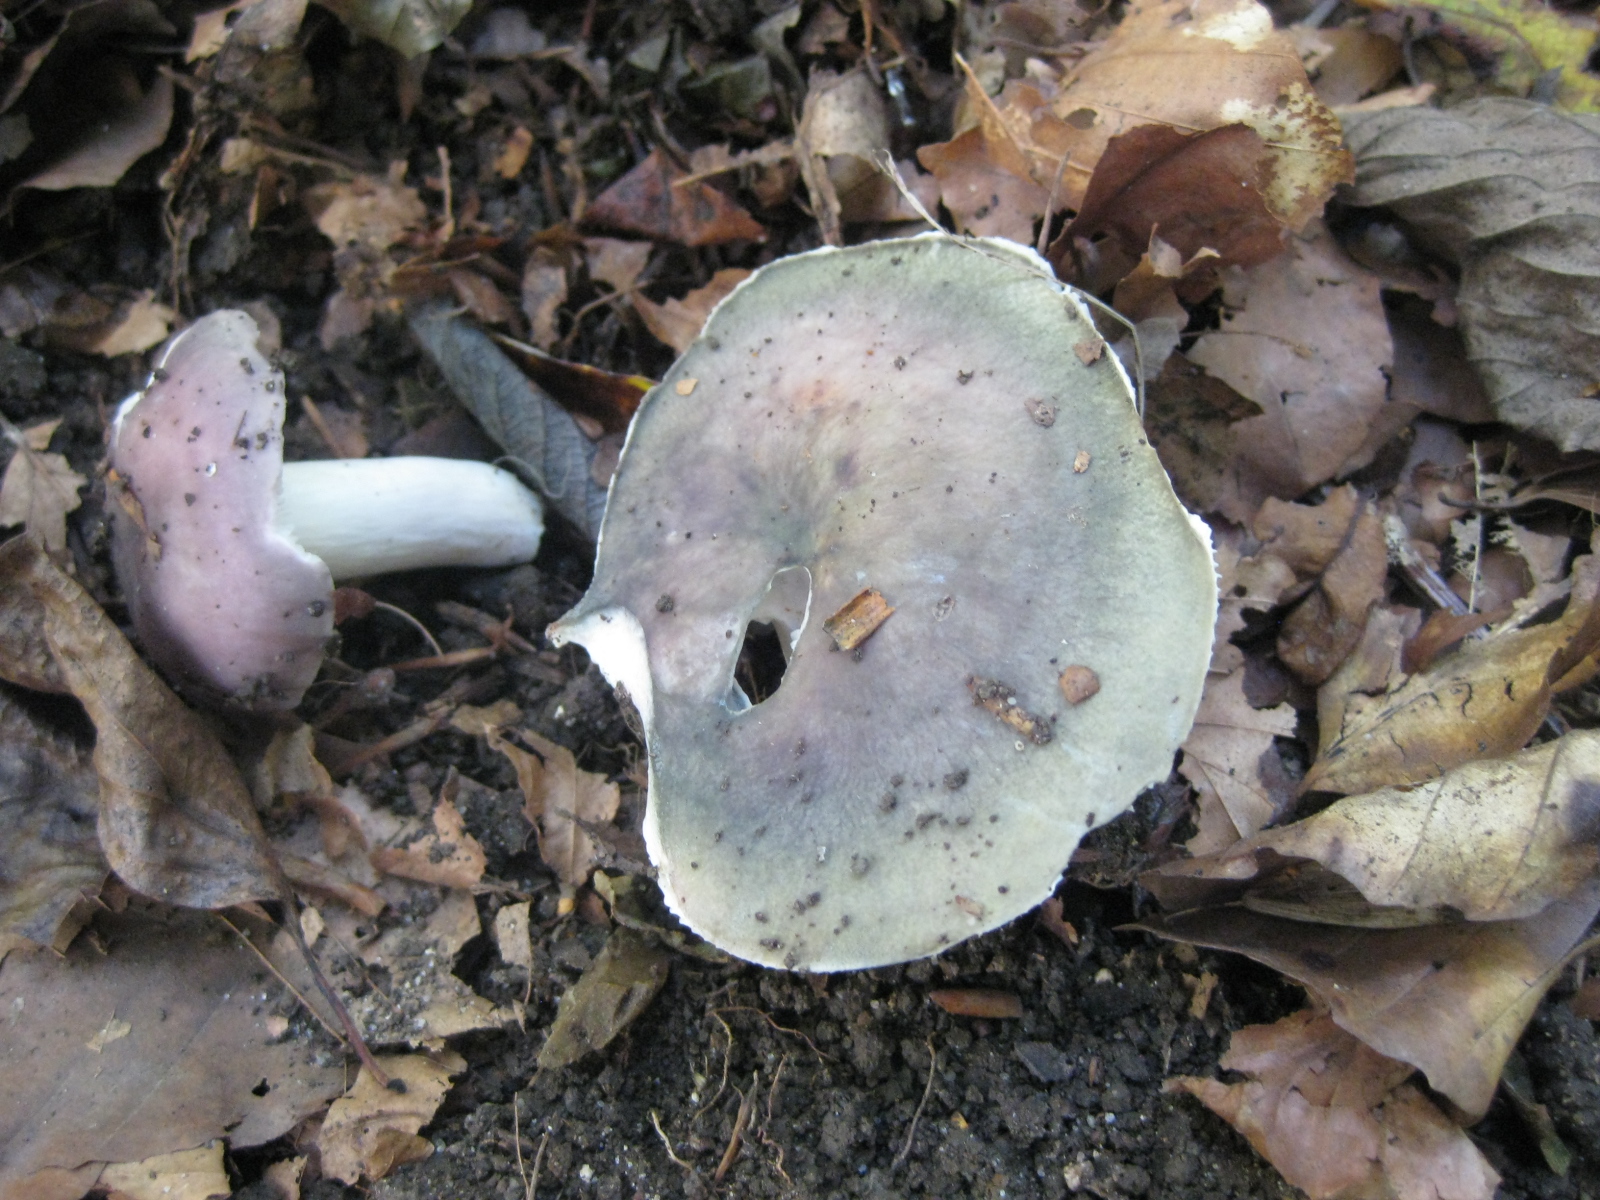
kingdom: Fungi
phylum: Basidiomycota
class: Agaricomycetes
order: Russulales
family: Russulaceae
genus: Russula
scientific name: Russula cyanoxantha
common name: broget skørhat
